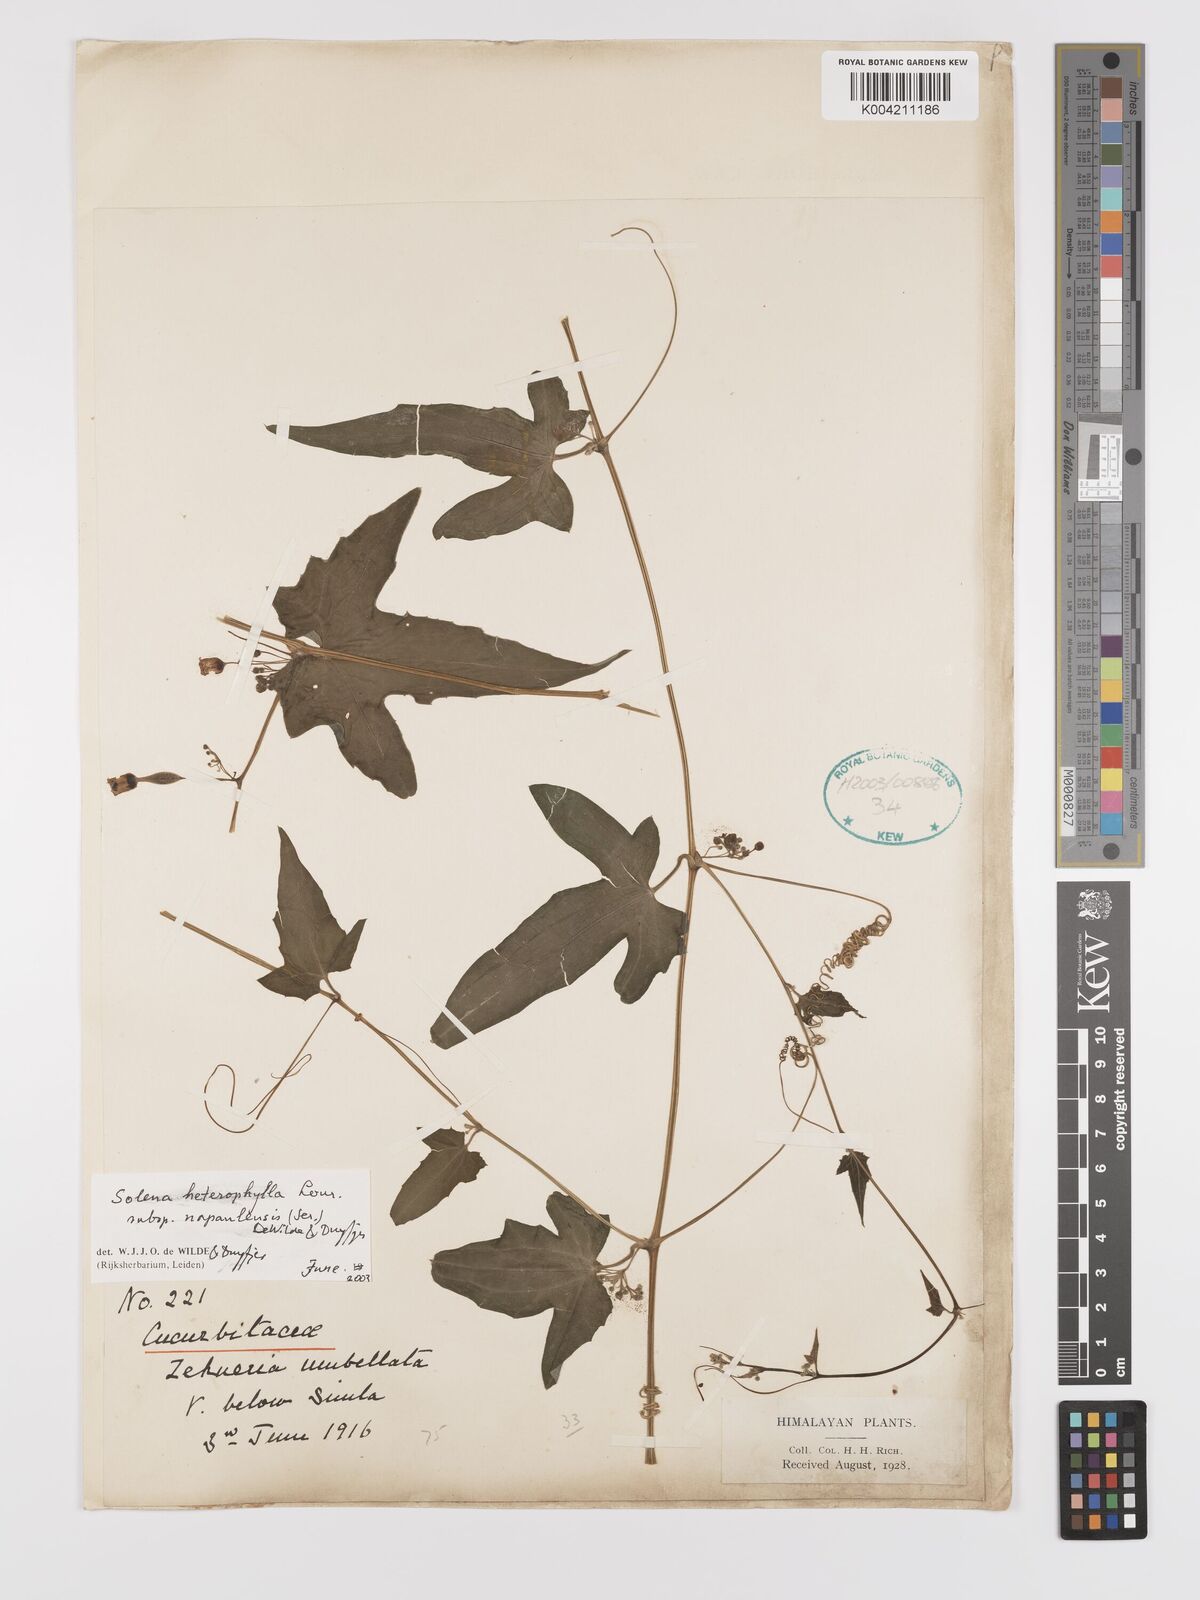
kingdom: Plantae
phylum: Tracheophyta
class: Magnoliopsida
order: Cucurbitales
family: Cucurbitaceae
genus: Solena
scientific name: Solena heterophylla
